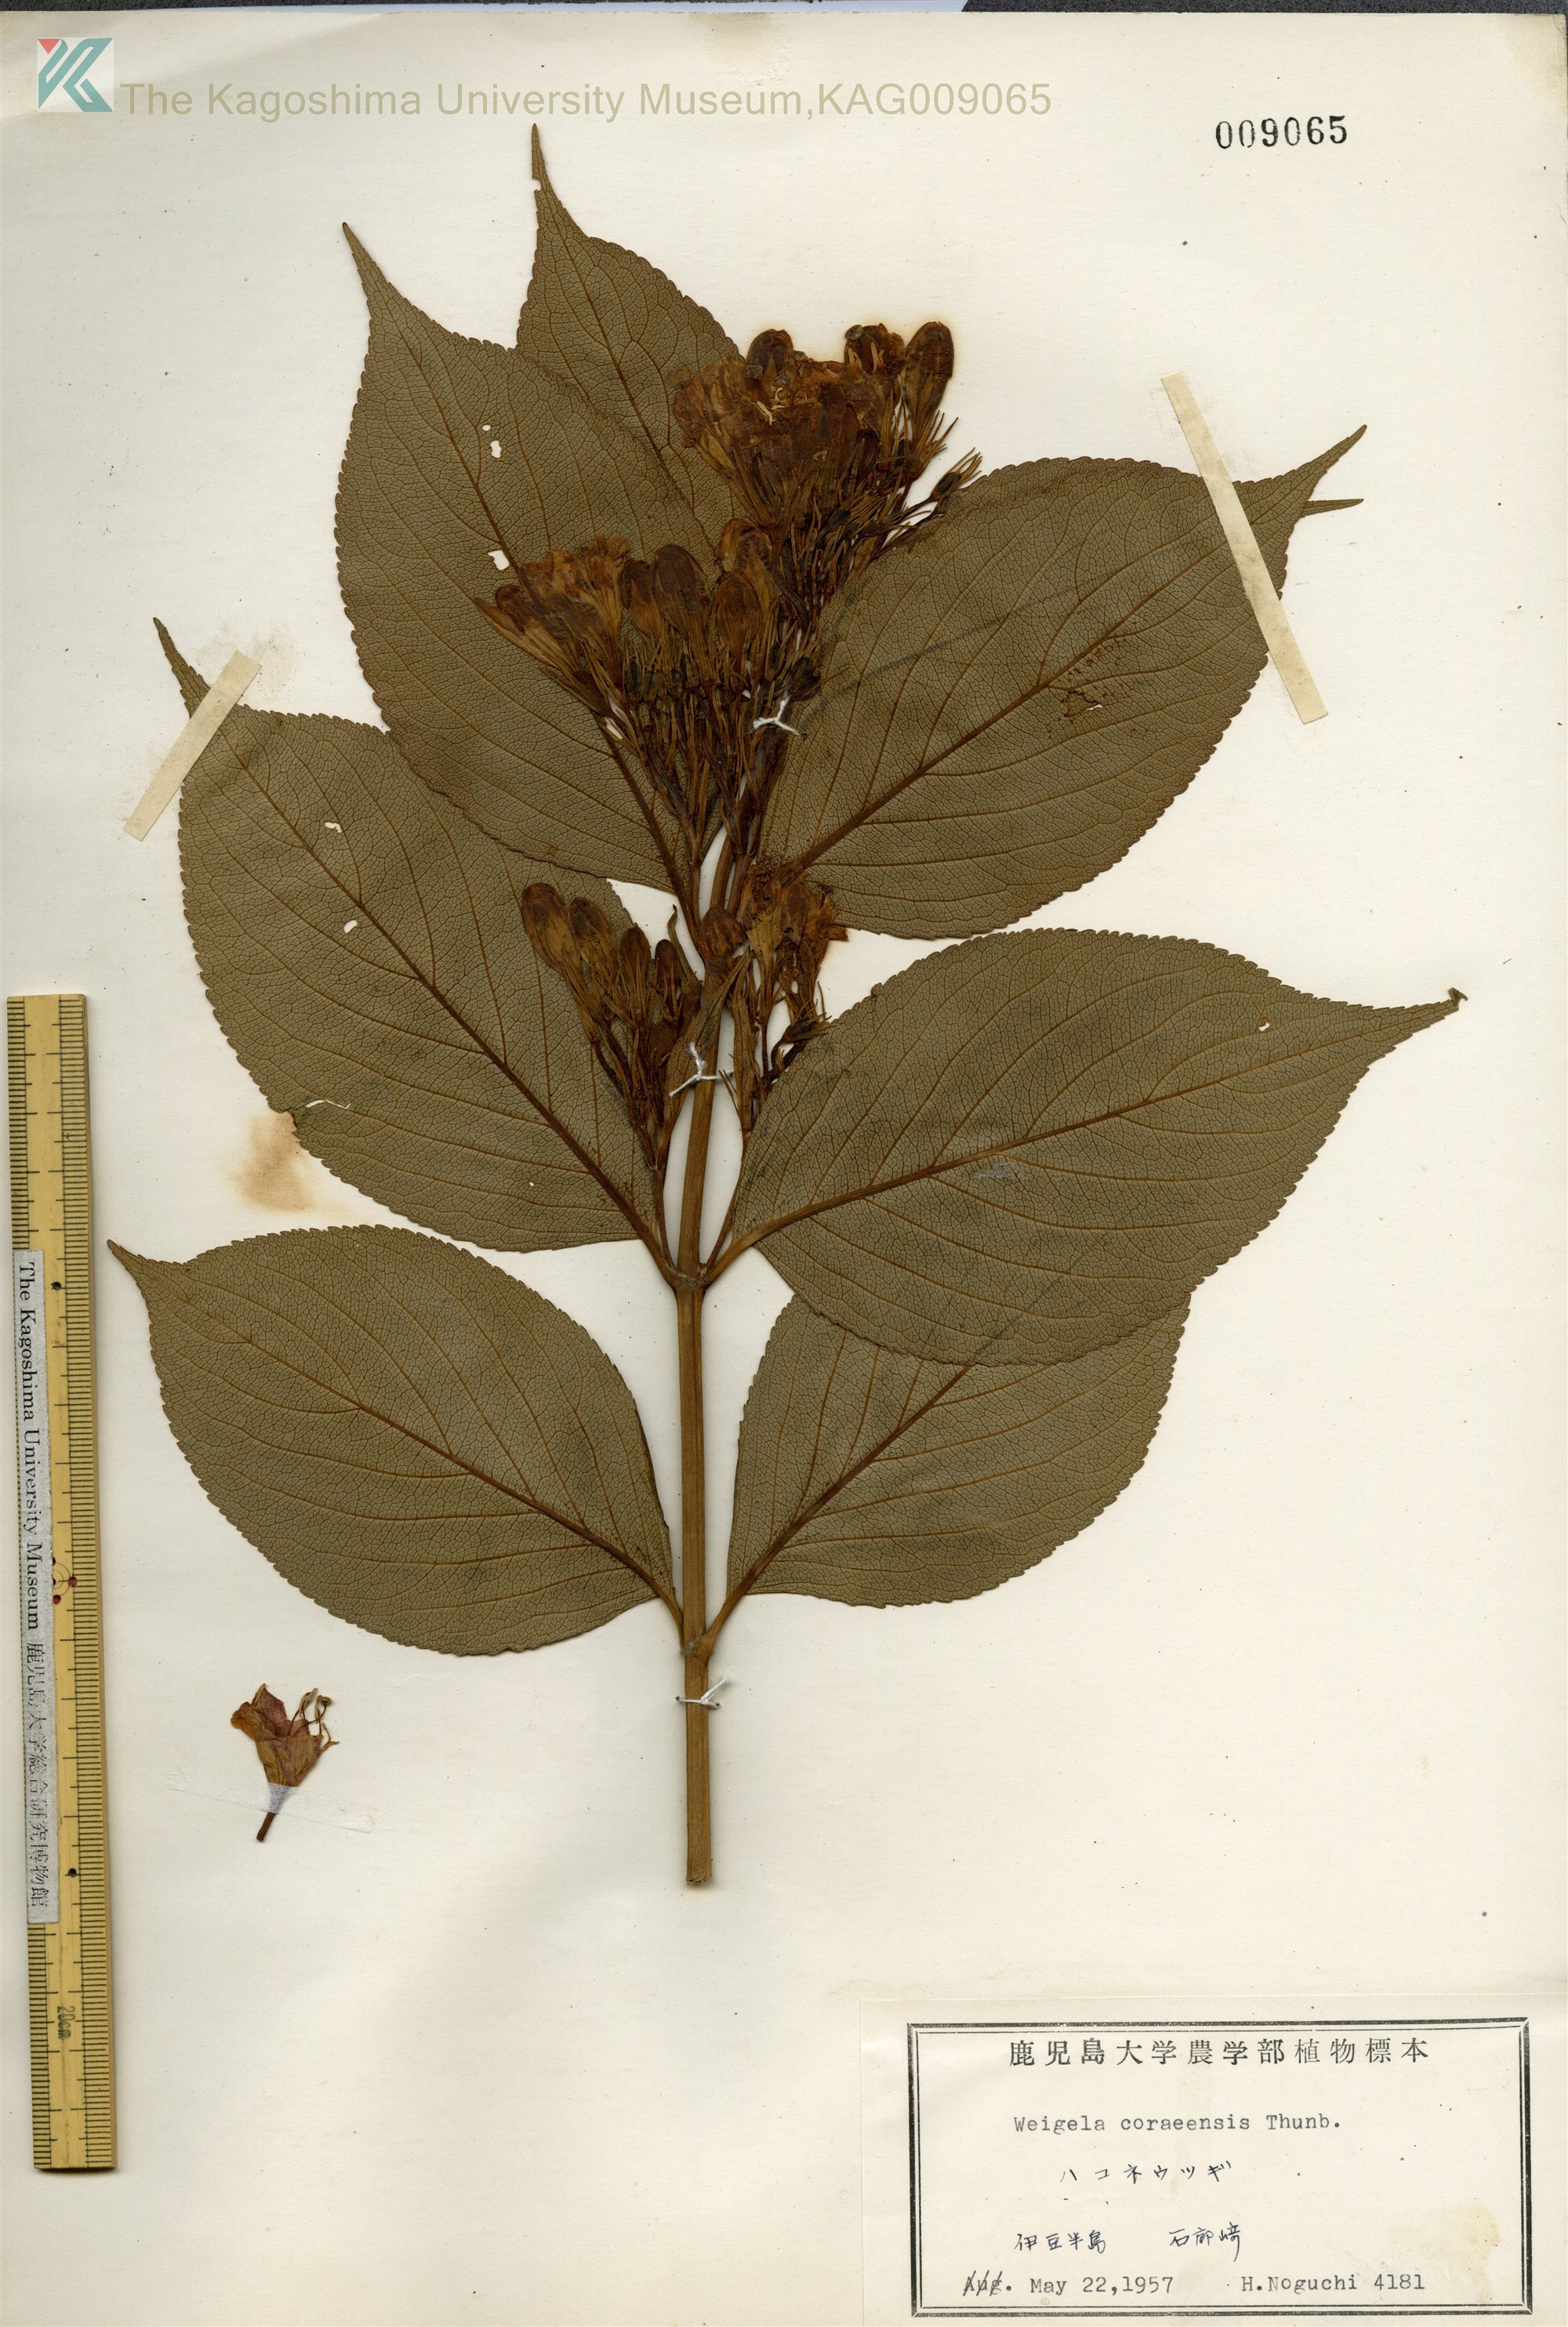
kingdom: Plantae
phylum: Tracheophyta
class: Magnoliopsida
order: Dipsacales
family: Caprifoliaceae
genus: Weigela
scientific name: Weigela
